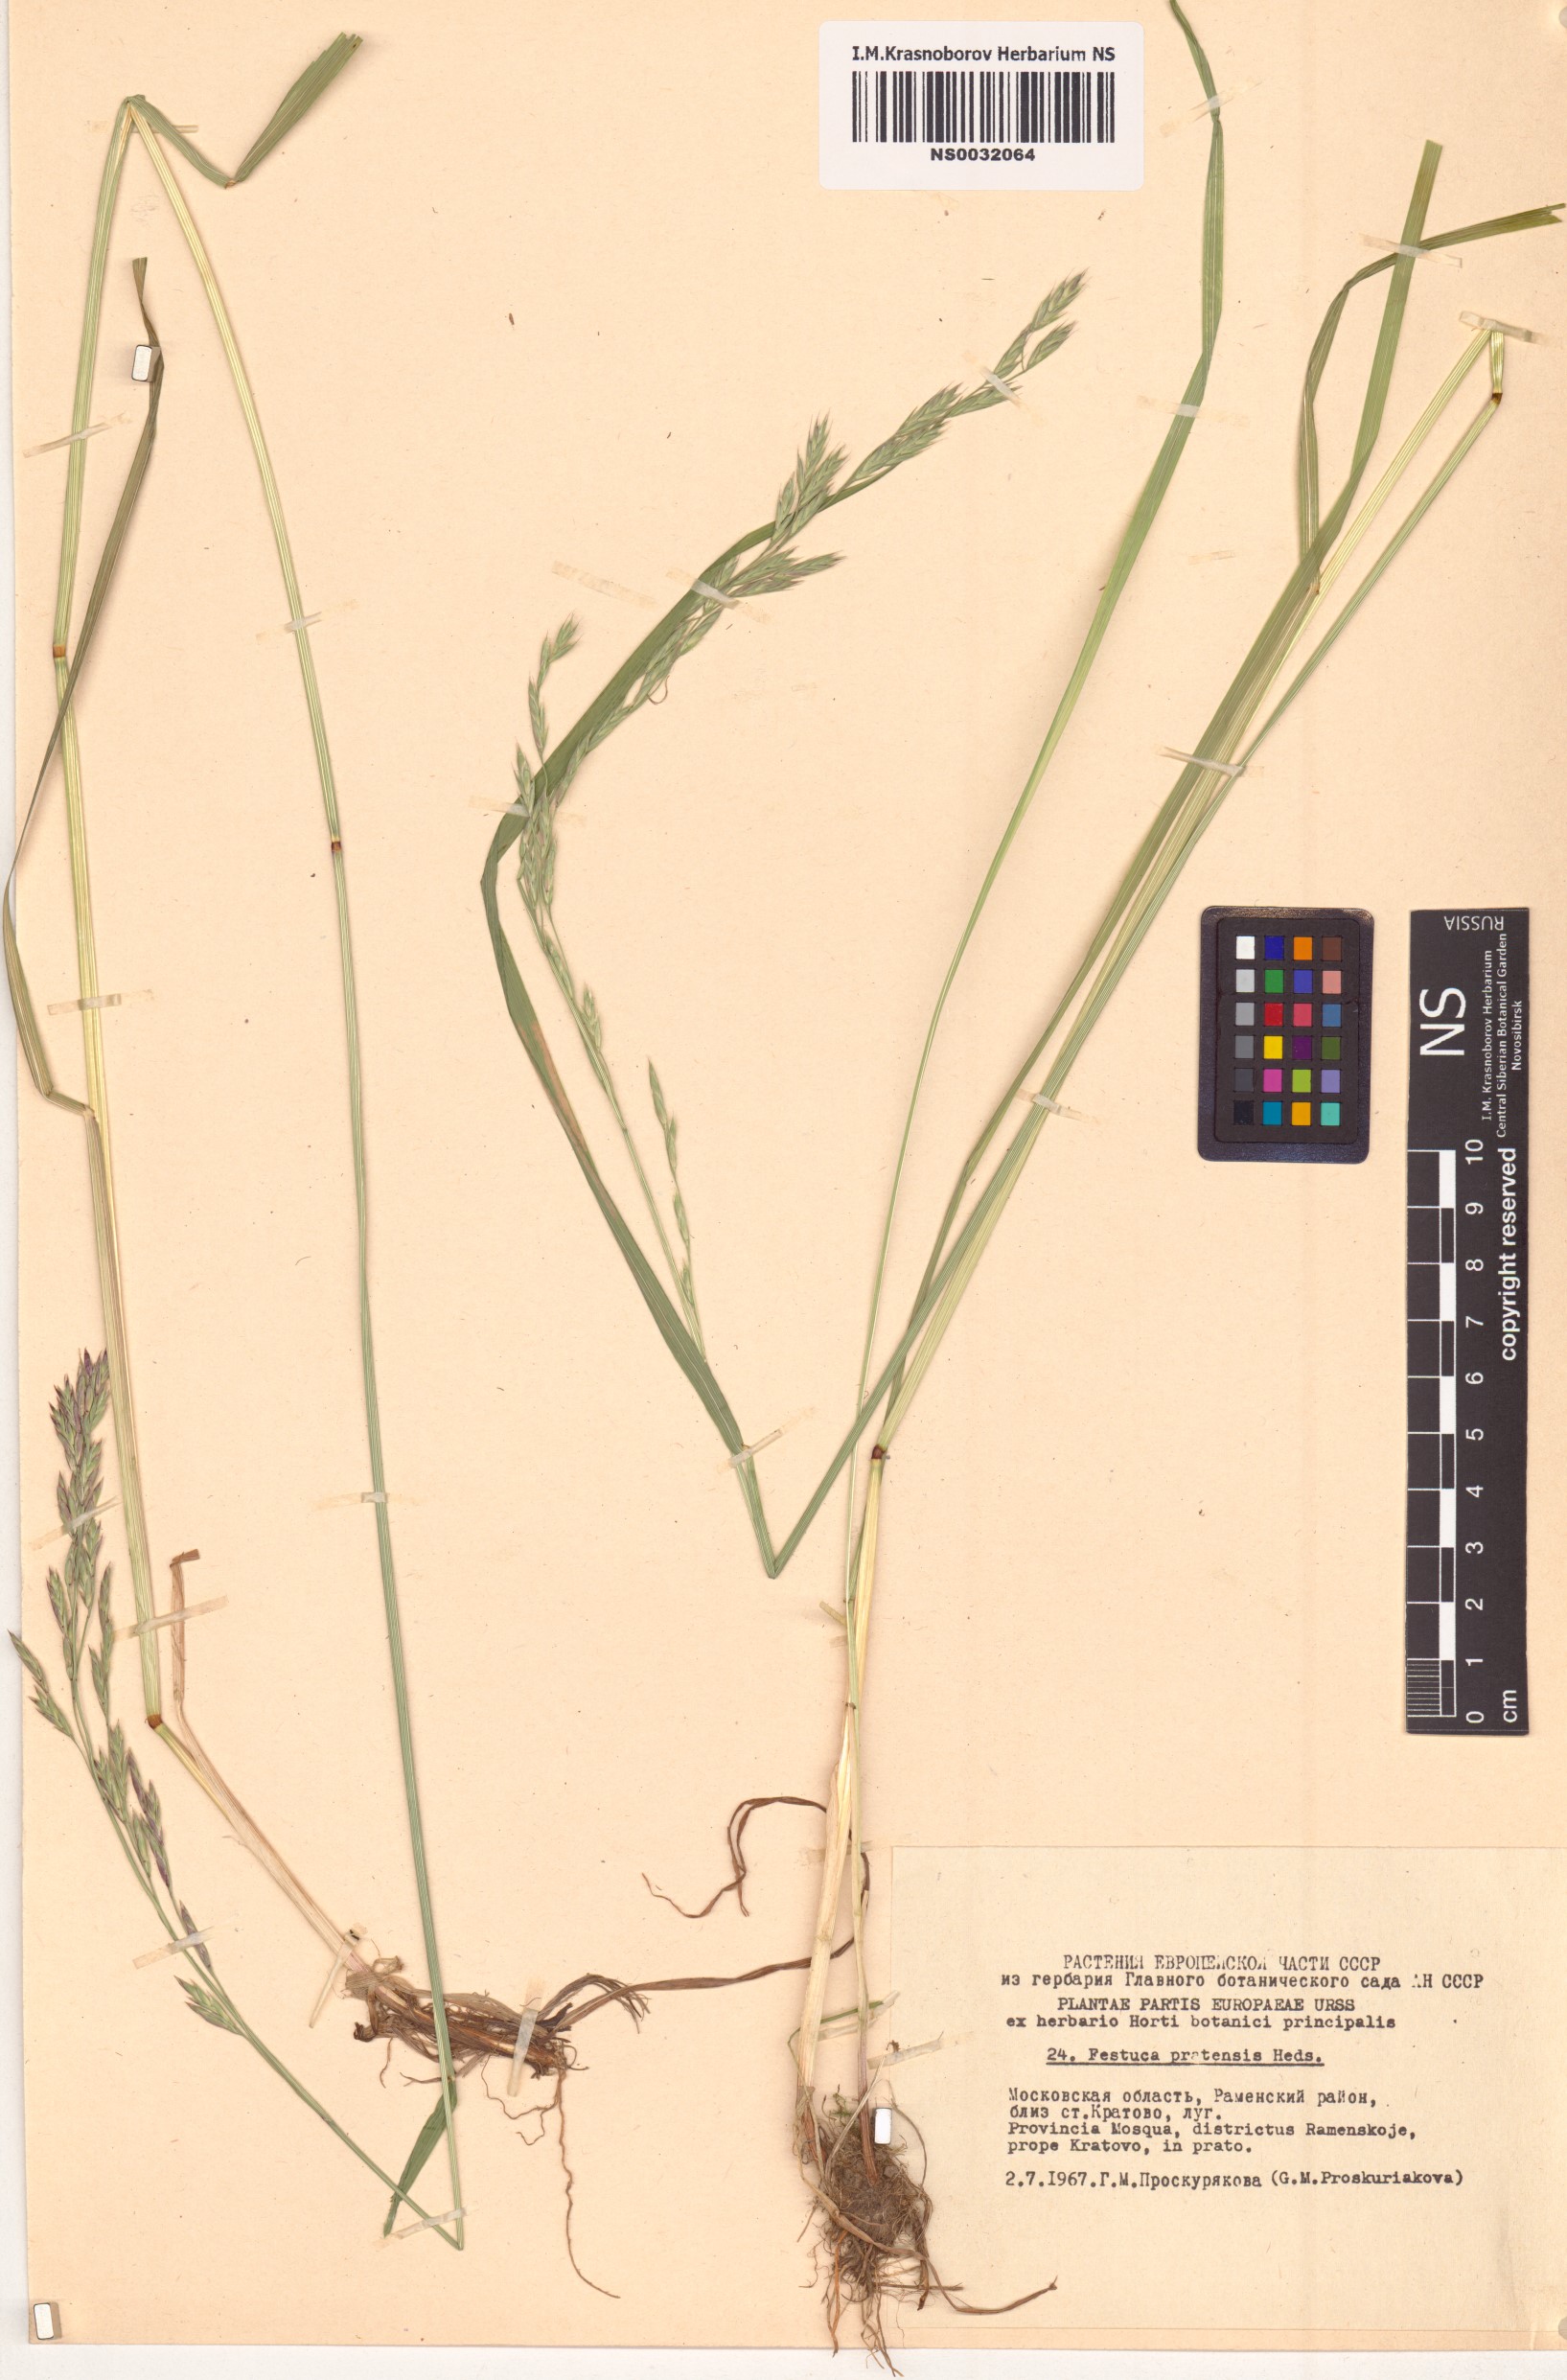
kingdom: Plantae
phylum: Tracheophyta
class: Liliopsida
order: Poales
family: Poaceae
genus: Lolium
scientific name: Lolium pratense
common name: Dover grass
